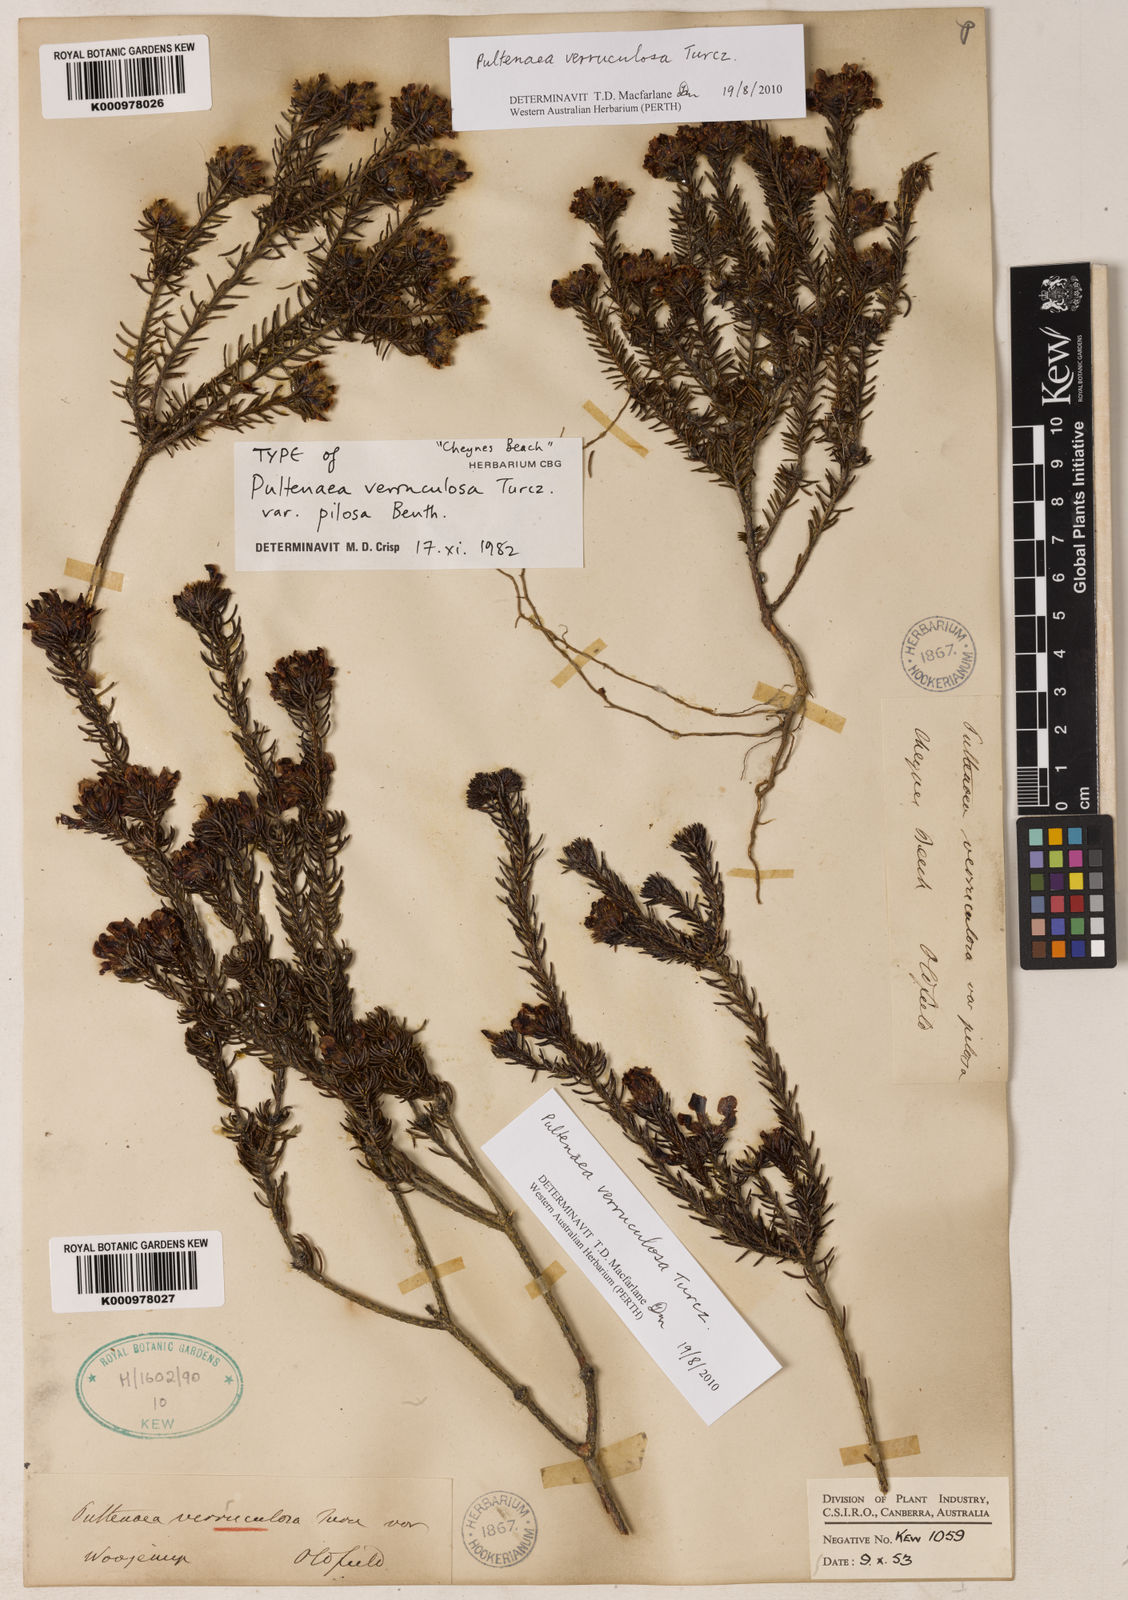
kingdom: Plantae
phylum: Tracheophyta
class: Magnoliopsida
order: Fabales
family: Fabaceae
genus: Pultenaea
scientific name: Pultenaea verruculosa
